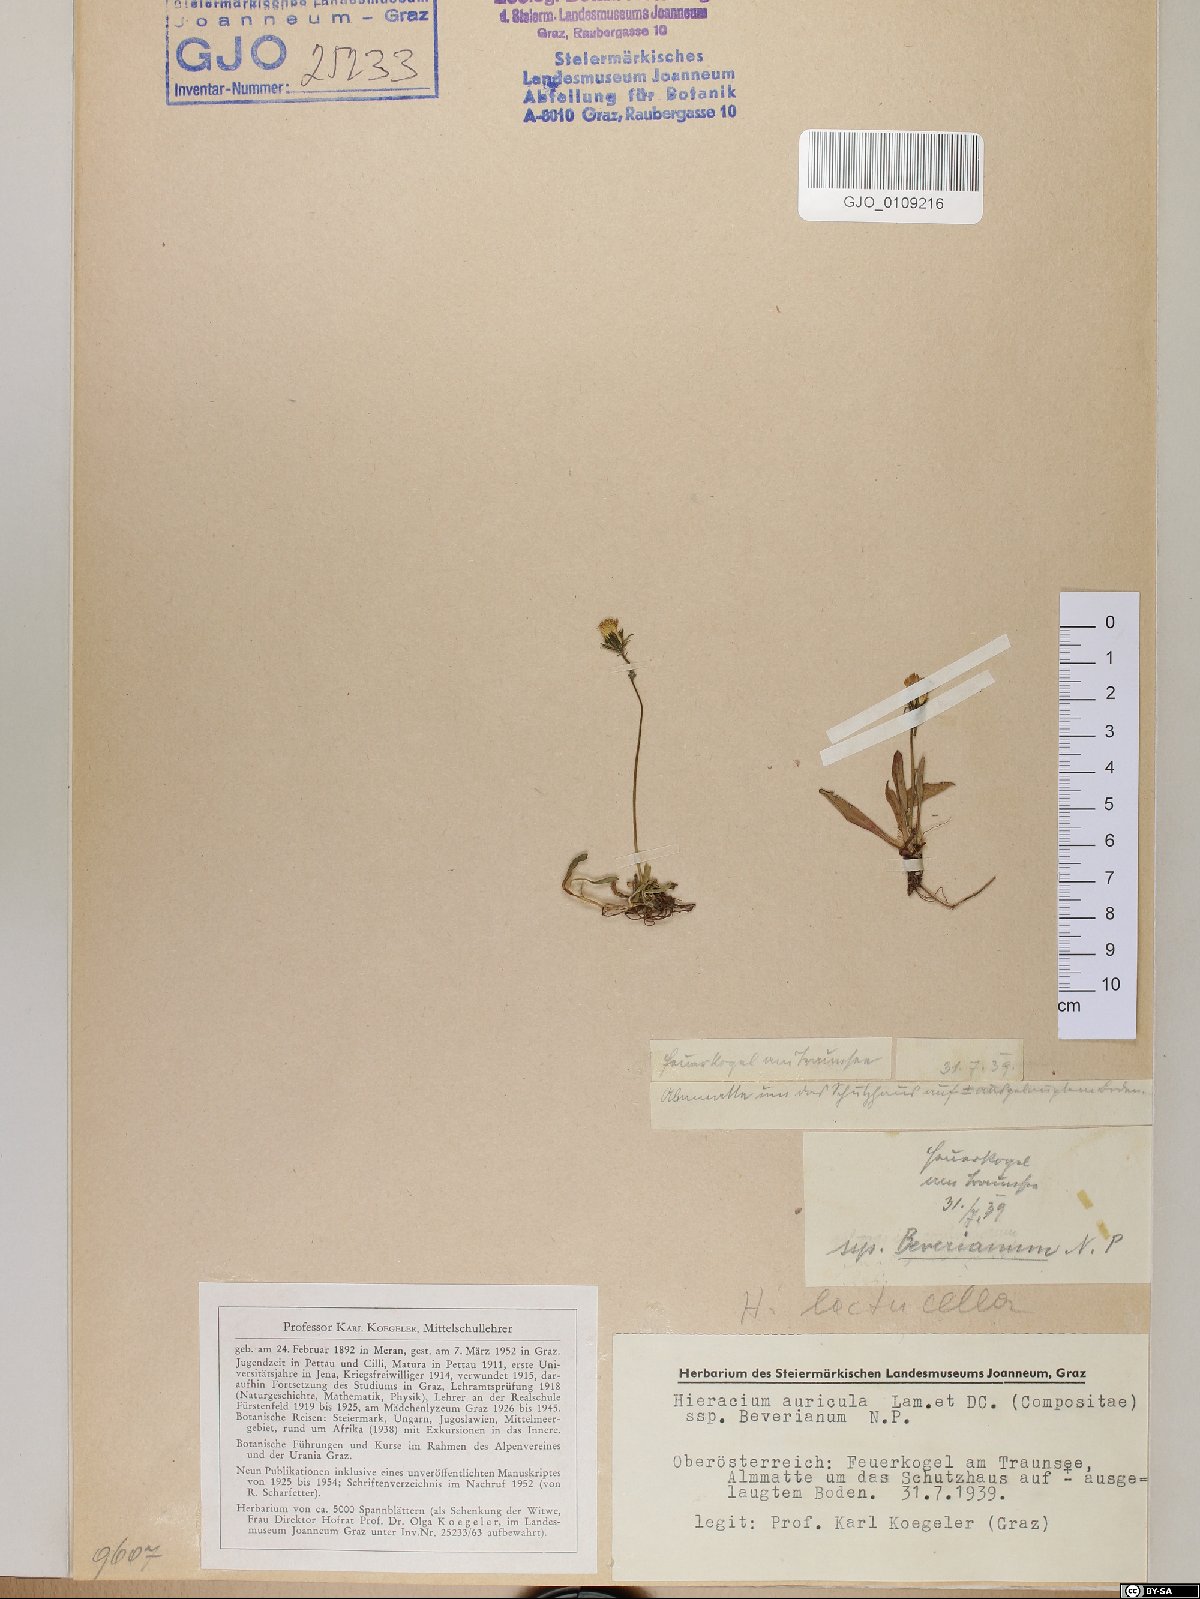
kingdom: Plantae
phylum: Tracheophyta
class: Magnoliopsida
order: Asterales
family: Asteraceae
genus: Hieracium
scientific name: Hieracium auricula
